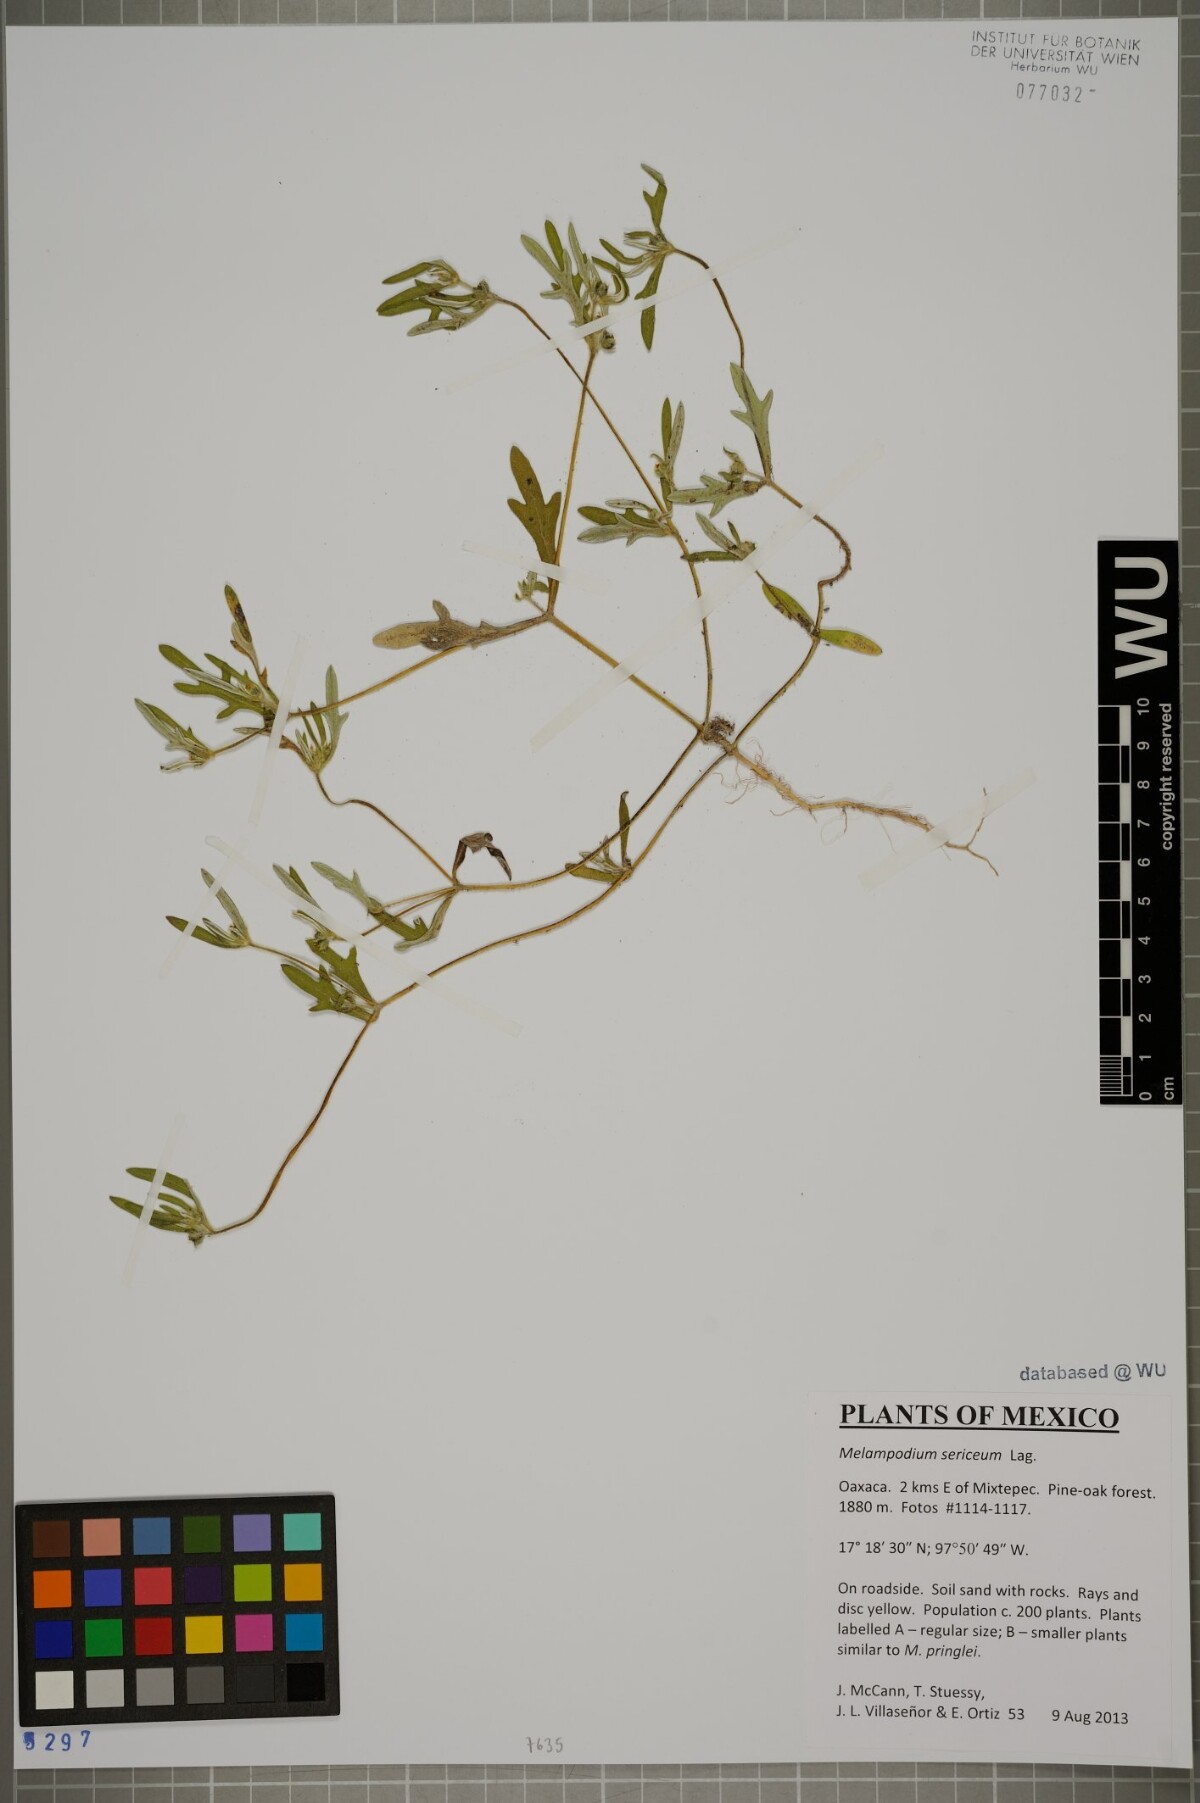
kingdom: Plantae
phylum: Tracheophyta
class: Magnoliopsida
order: Asterales
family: Asteraceae
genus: Melampodium
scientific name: Melampodium sericeum
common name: Rough blackfoot
